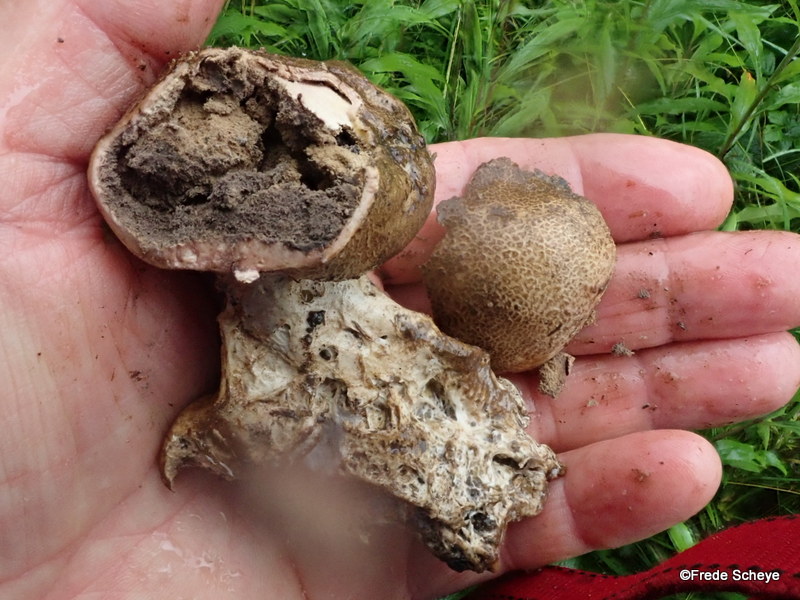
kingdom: Fungi
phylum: Basidiomycota
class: Agaricomycetes
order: Boletales
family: Sclerodermataceae
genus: Scleroderma
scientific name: Scleroderma verrucosum
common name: stilket bruskbold
